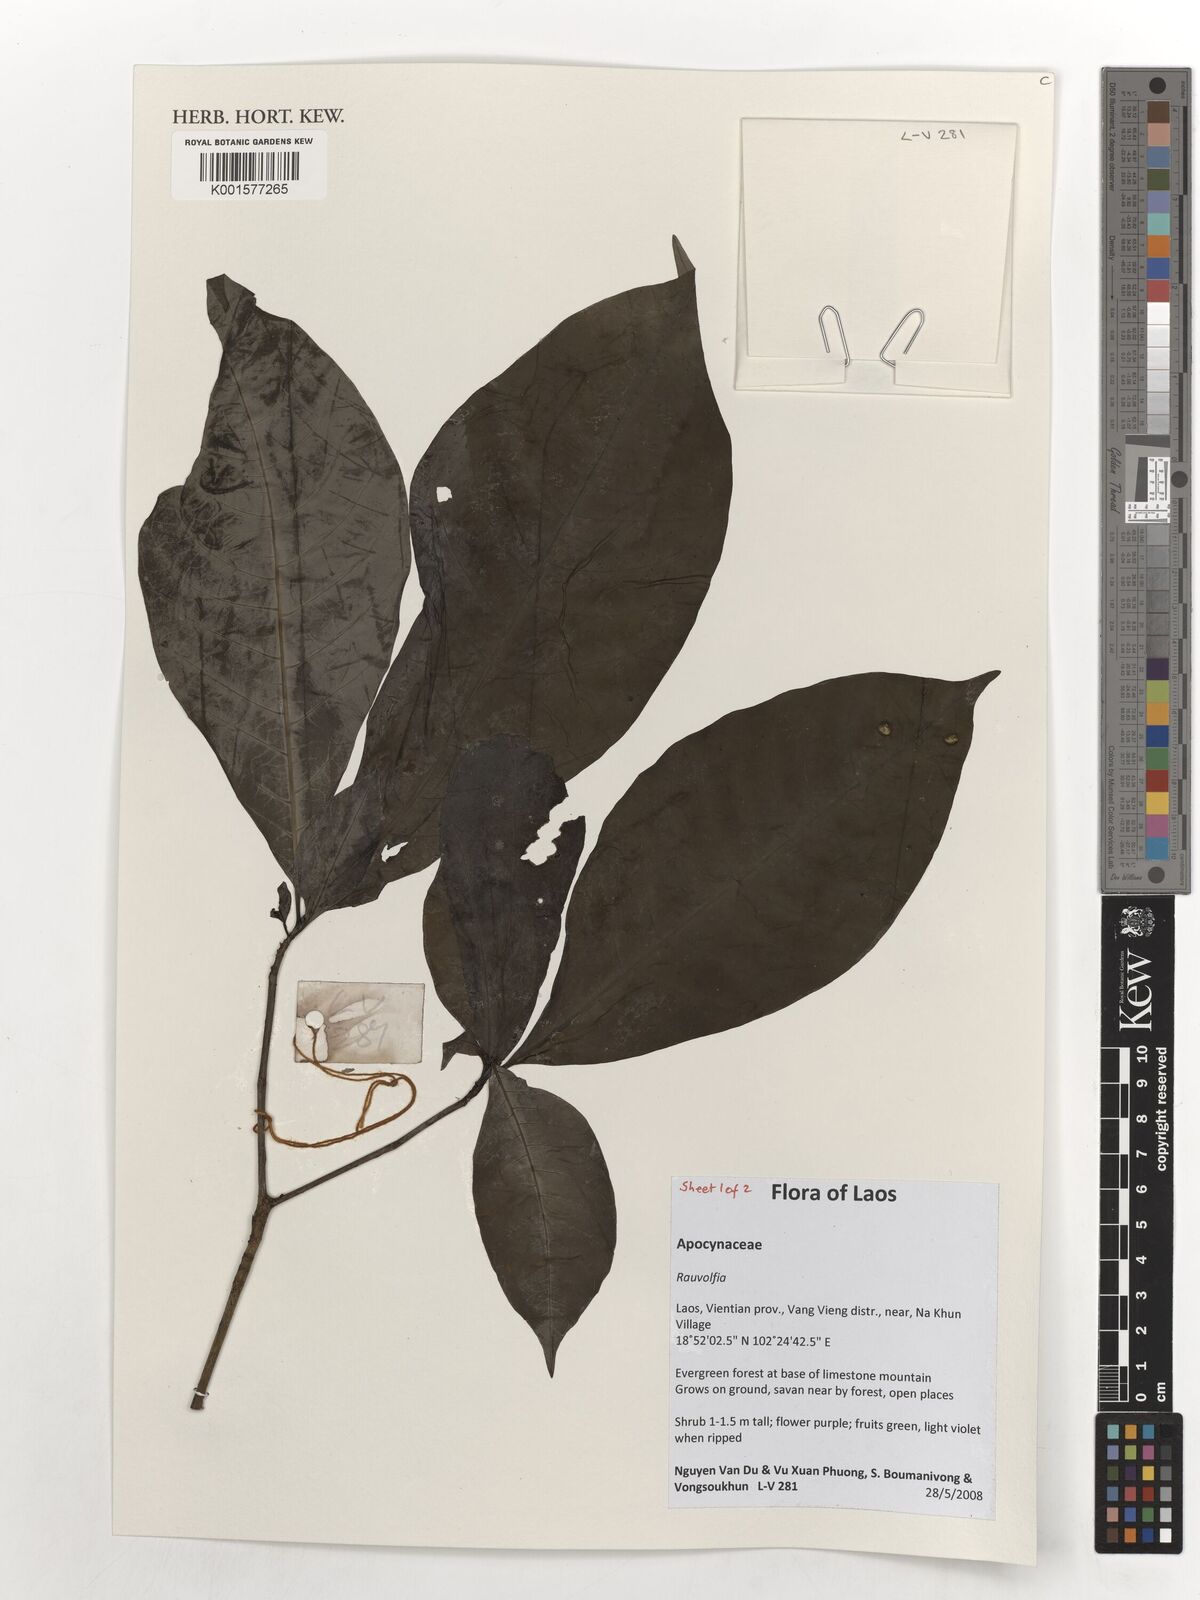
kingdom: Plantae
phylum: Tracheophyta
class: Magnoliopsida
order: Gentianales
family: Apocynaceae
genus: Rauvolfia
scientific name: Rauvolfia
